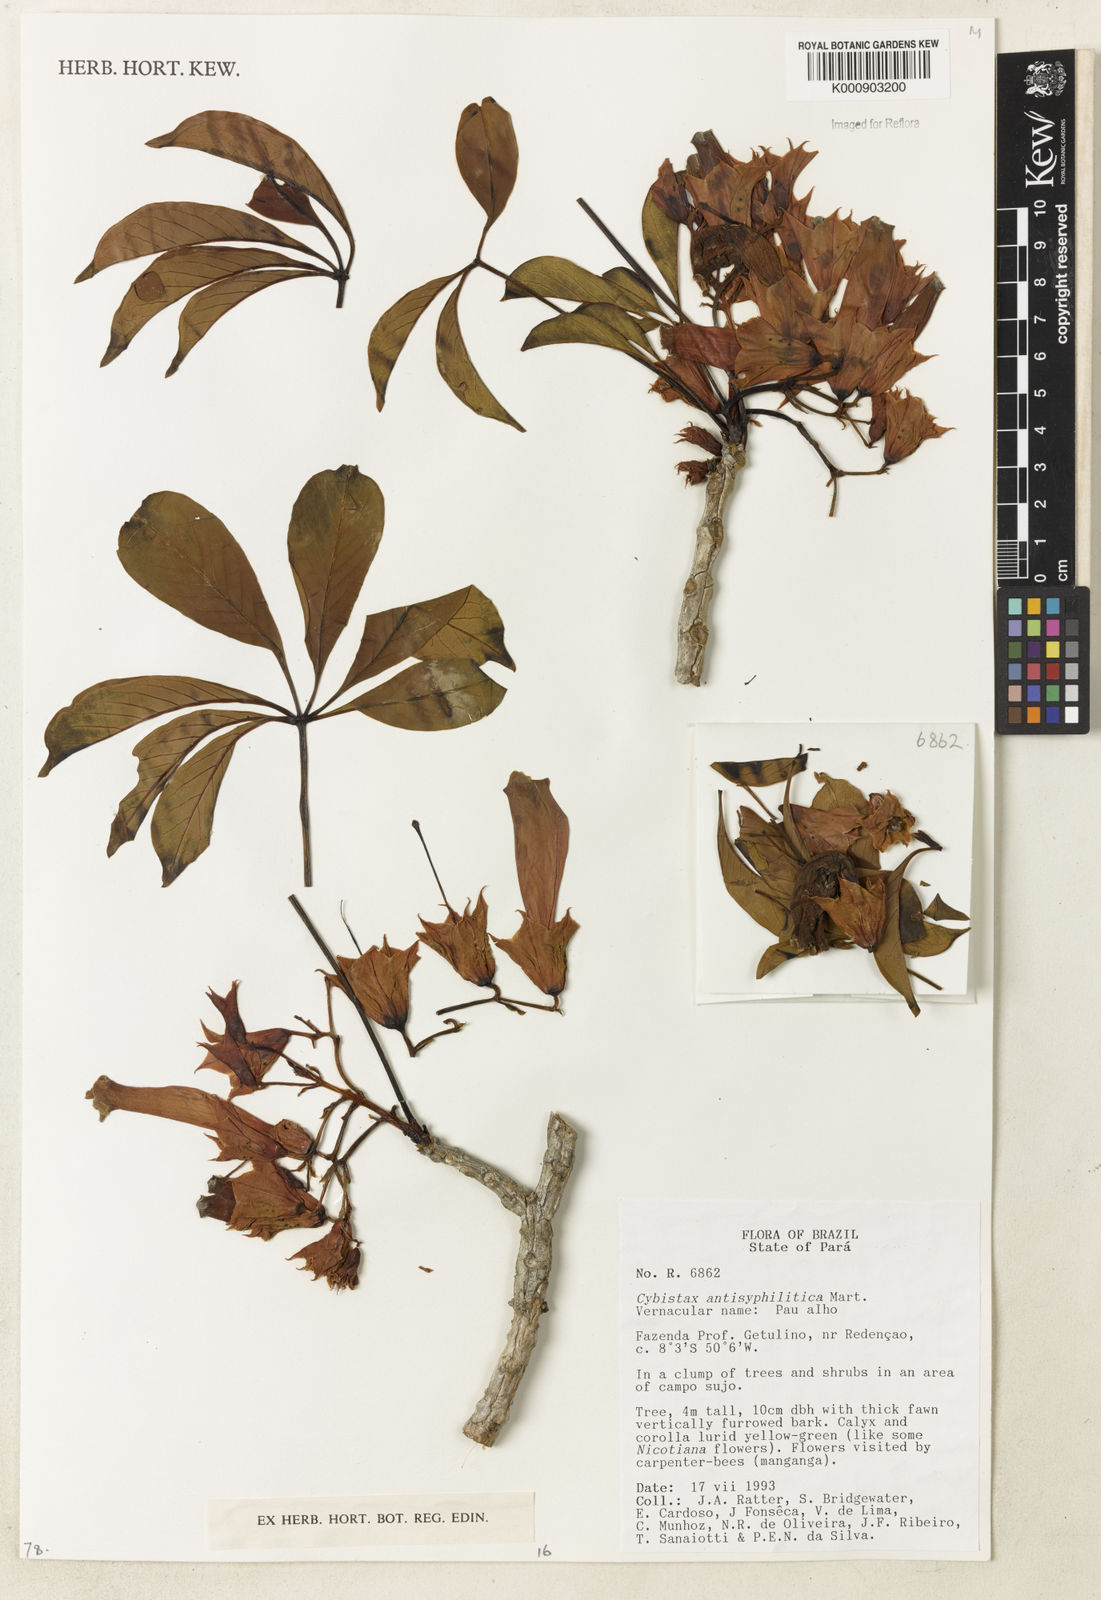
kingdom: Plantae
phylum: Tracheophyta
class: Magnoliopsida
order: Lamiales
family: Bignoniaceae
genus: Cybistax
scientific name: Cybistax antisyphilitica
